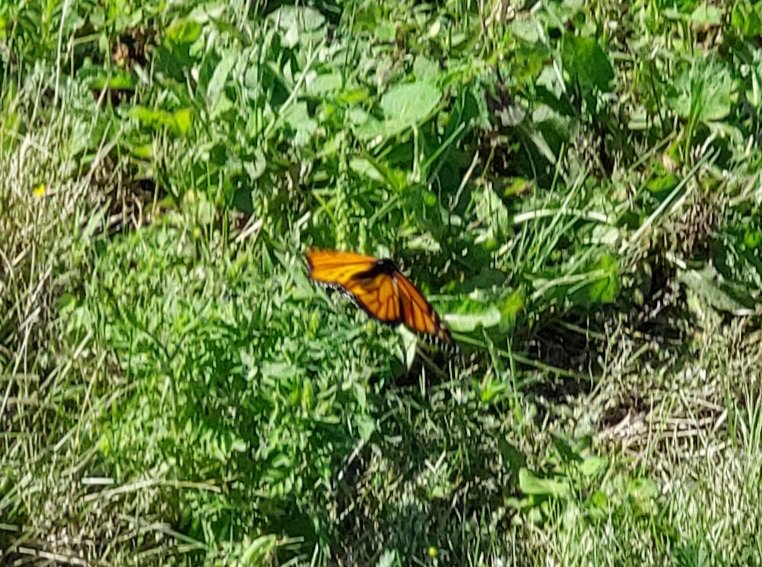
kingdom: Animalia
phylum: Arthropoda
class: Insecta
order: Lepidoptera
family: Nymphalidae
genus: Danaus
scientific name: Danaus plexippus
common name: Monarch
